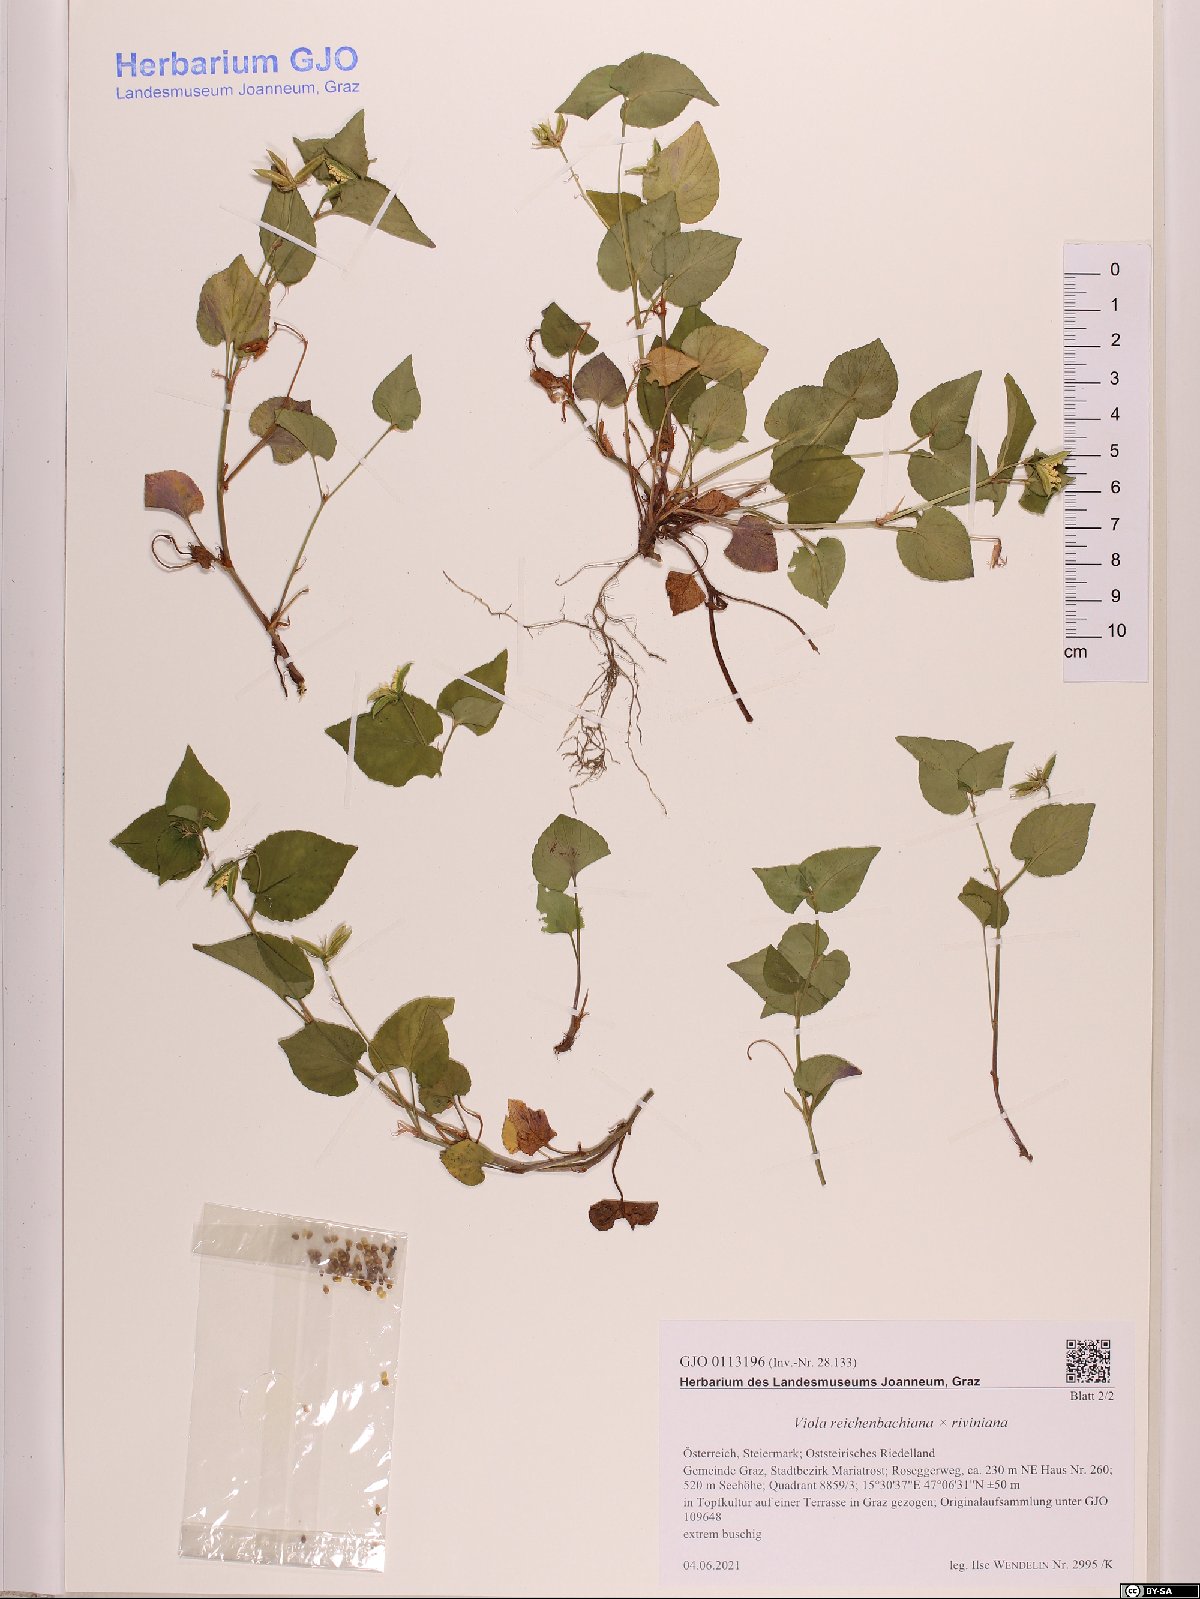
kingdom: Plantae
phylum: Tracheophyta
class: Magnoliopsida
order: Malpighiales
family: Violaceae
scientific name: Violaceae
